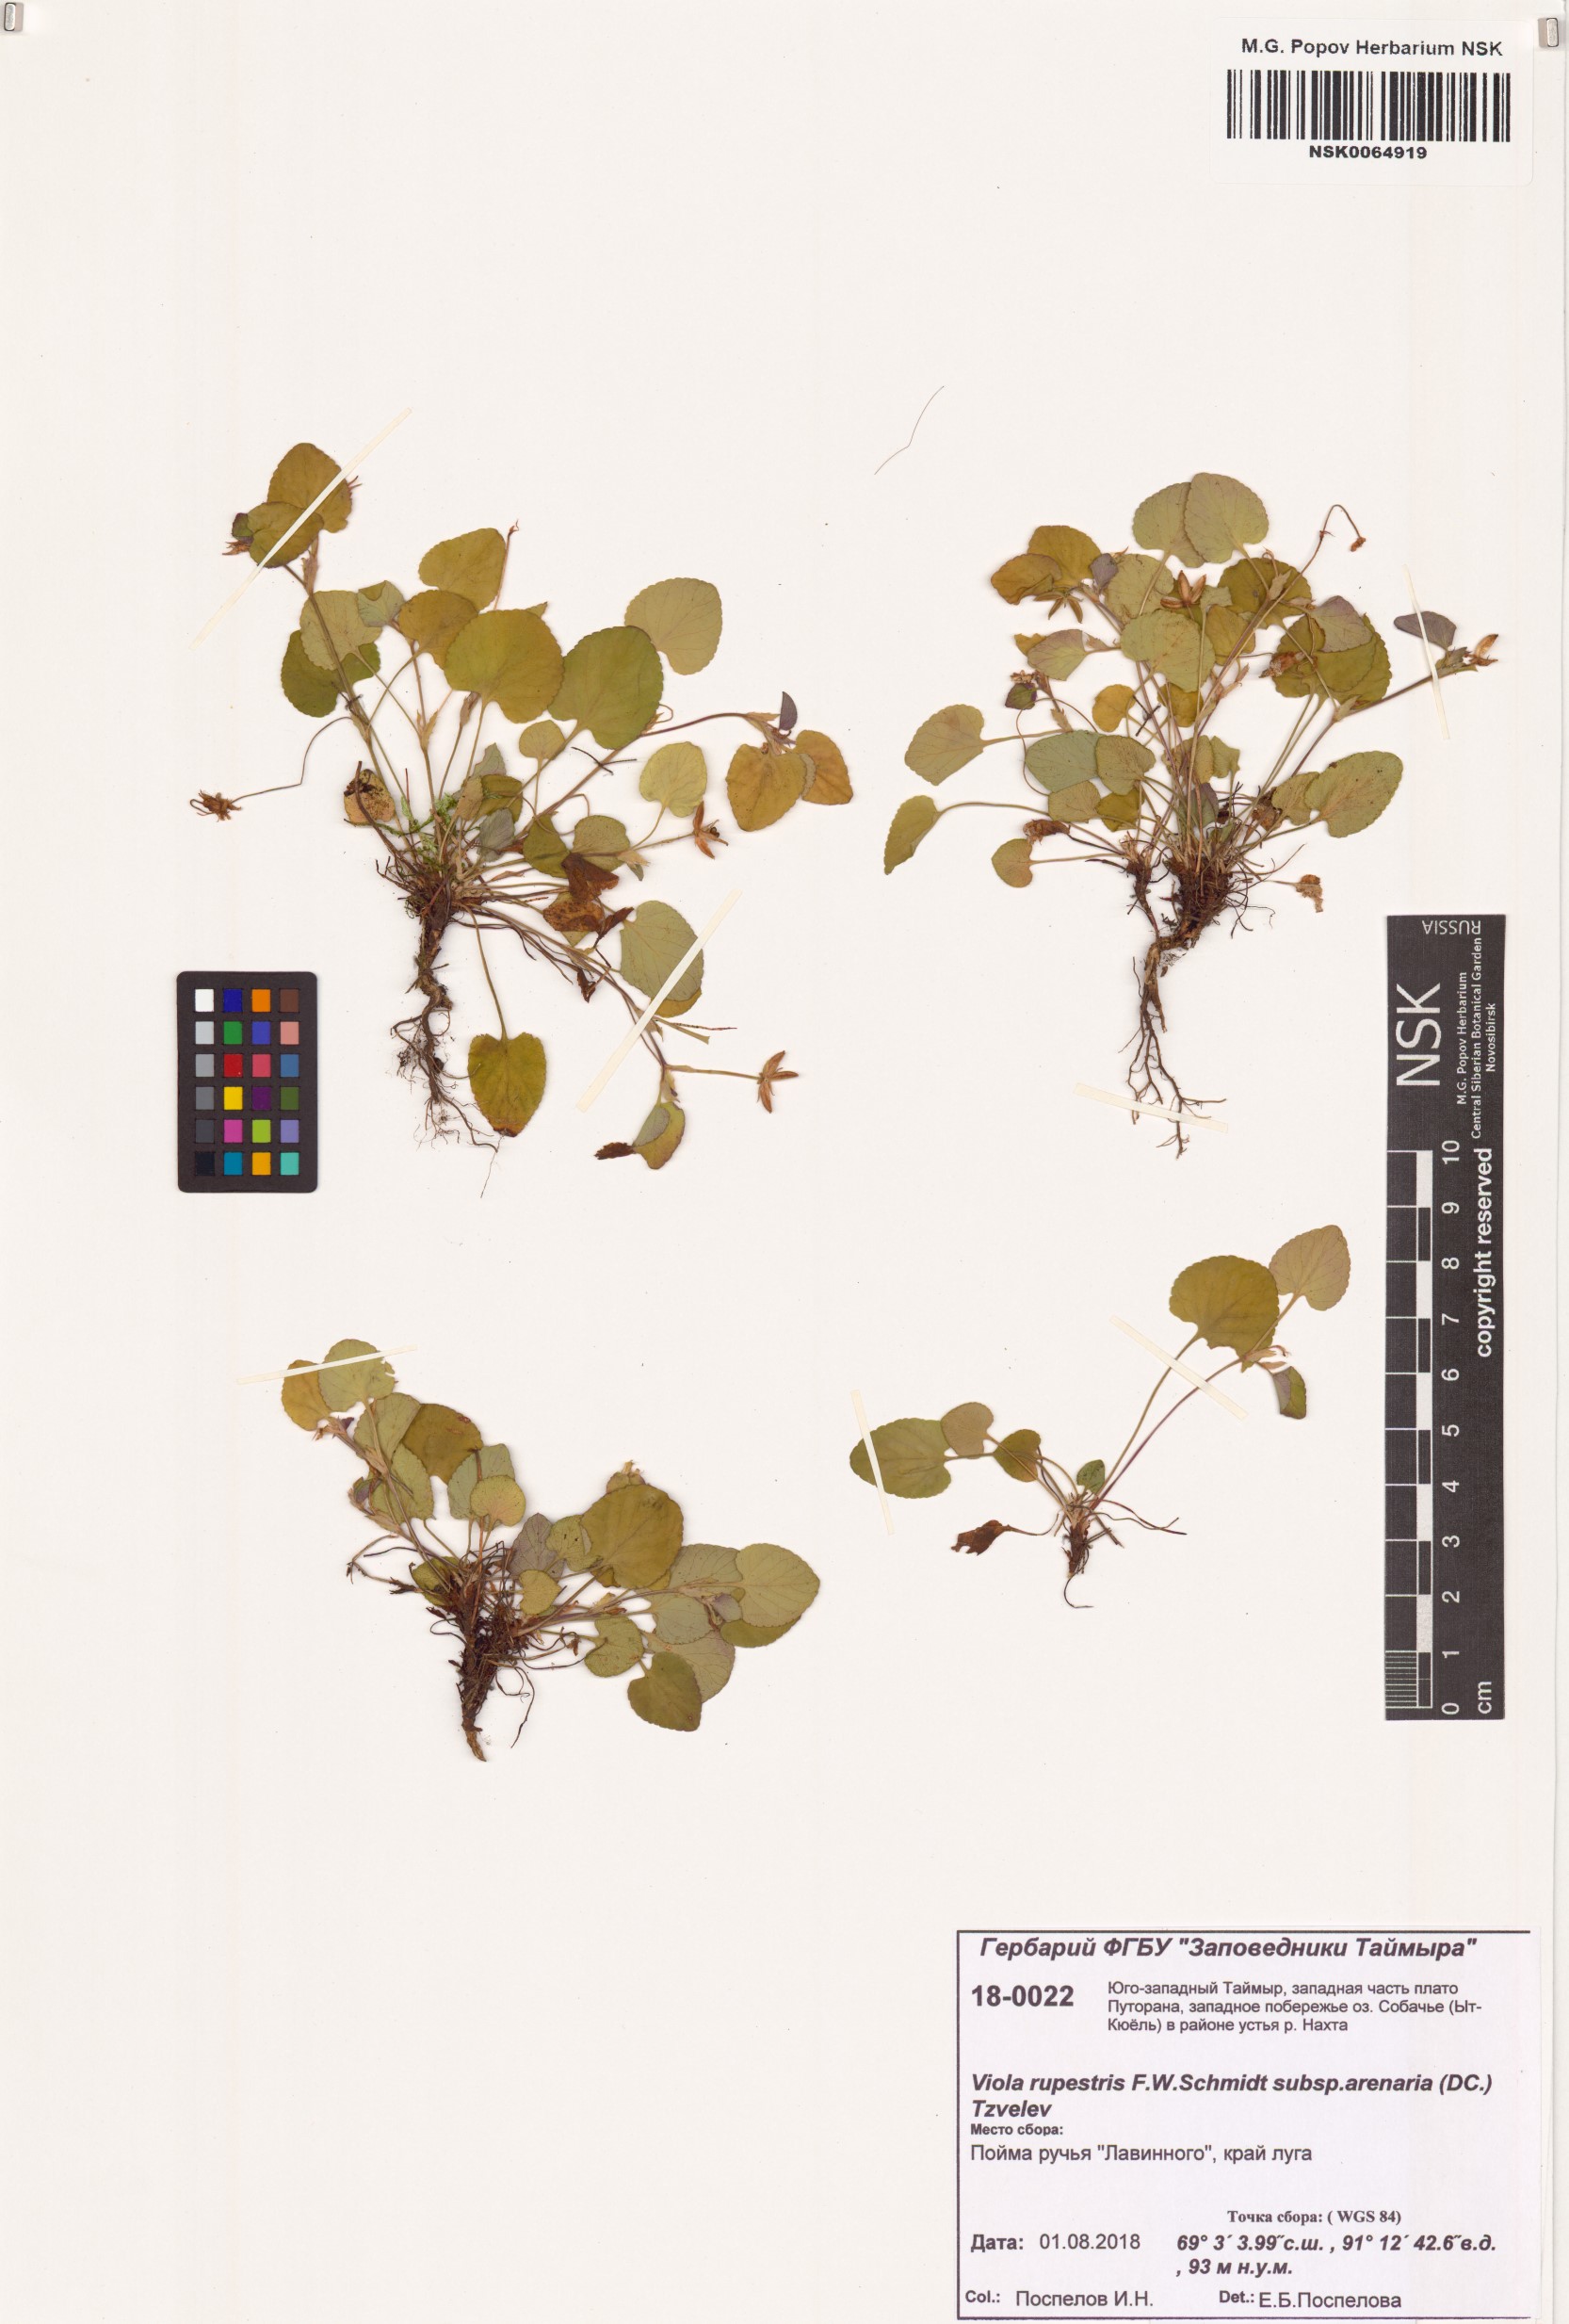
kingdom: Plantae
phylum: Tracheophyta
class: Magnoliopsida
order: Malpighiales
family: Violaceae
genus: Viola
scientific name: Viola rupestris
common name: Teesdale violet
